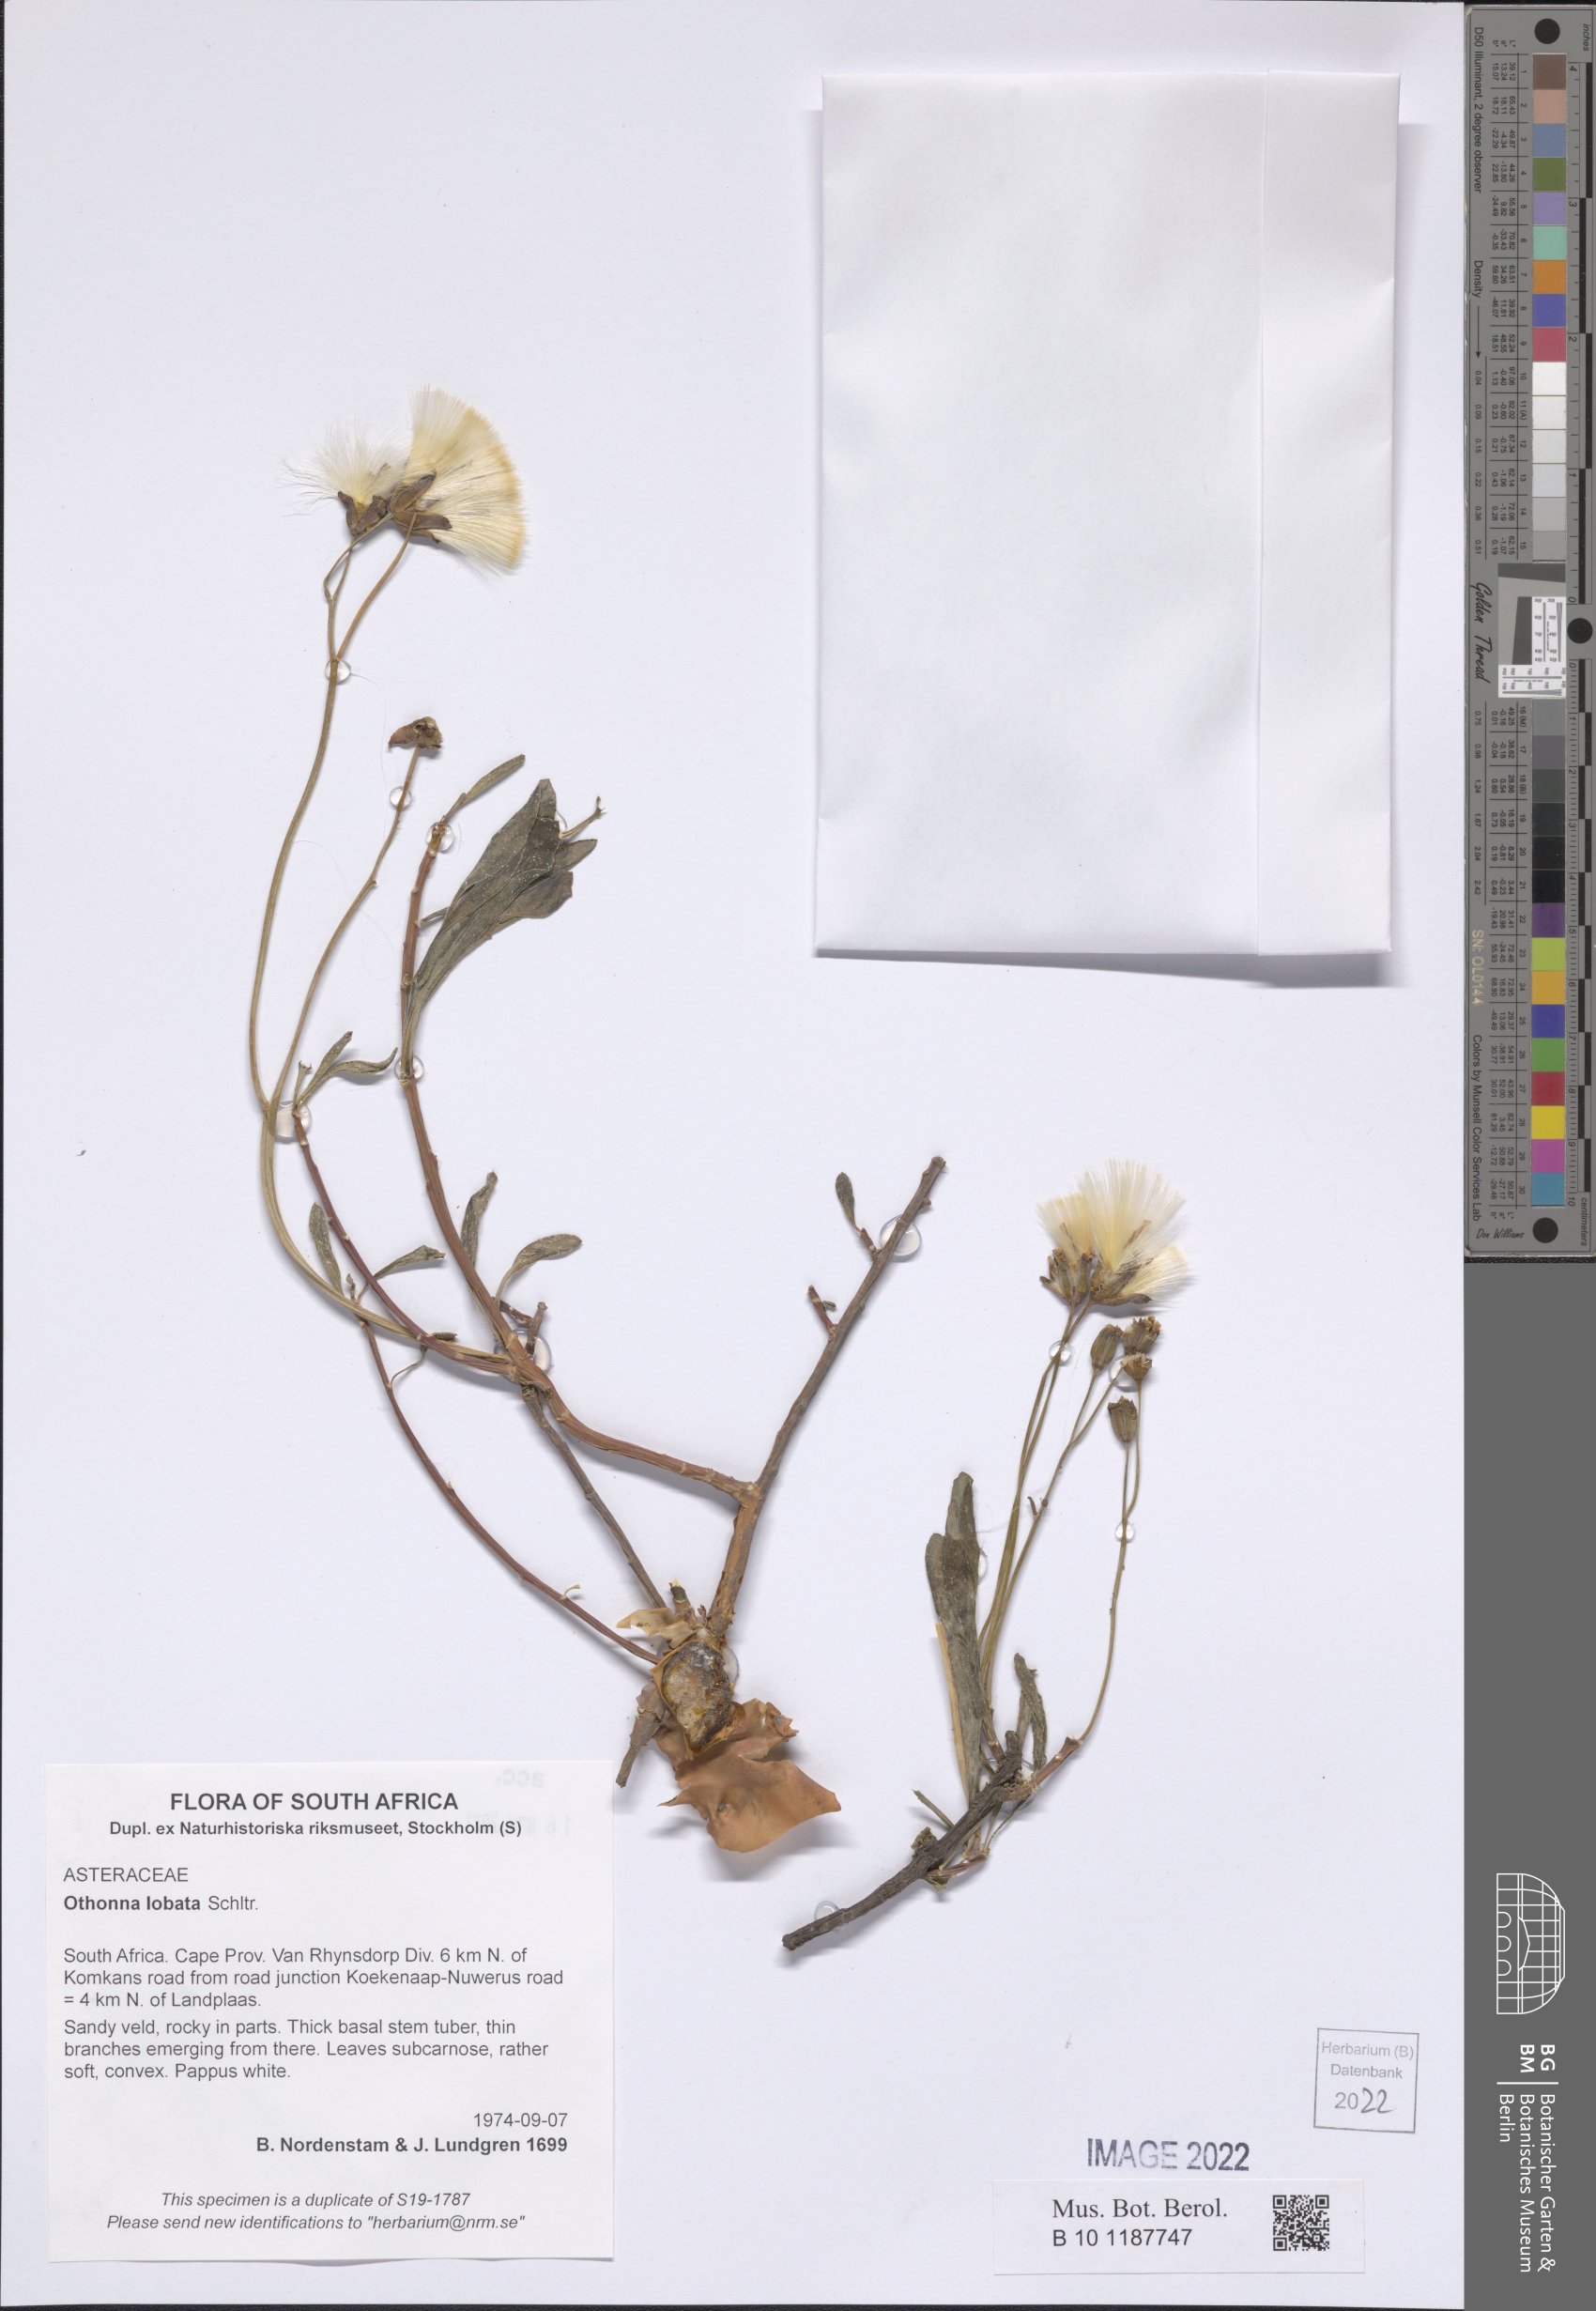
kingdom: Plantae
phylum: Tracheophyta
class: Magnoliopsida
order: Asterales
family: Asteraceae
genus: Othonna
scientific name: Othonna lobata
